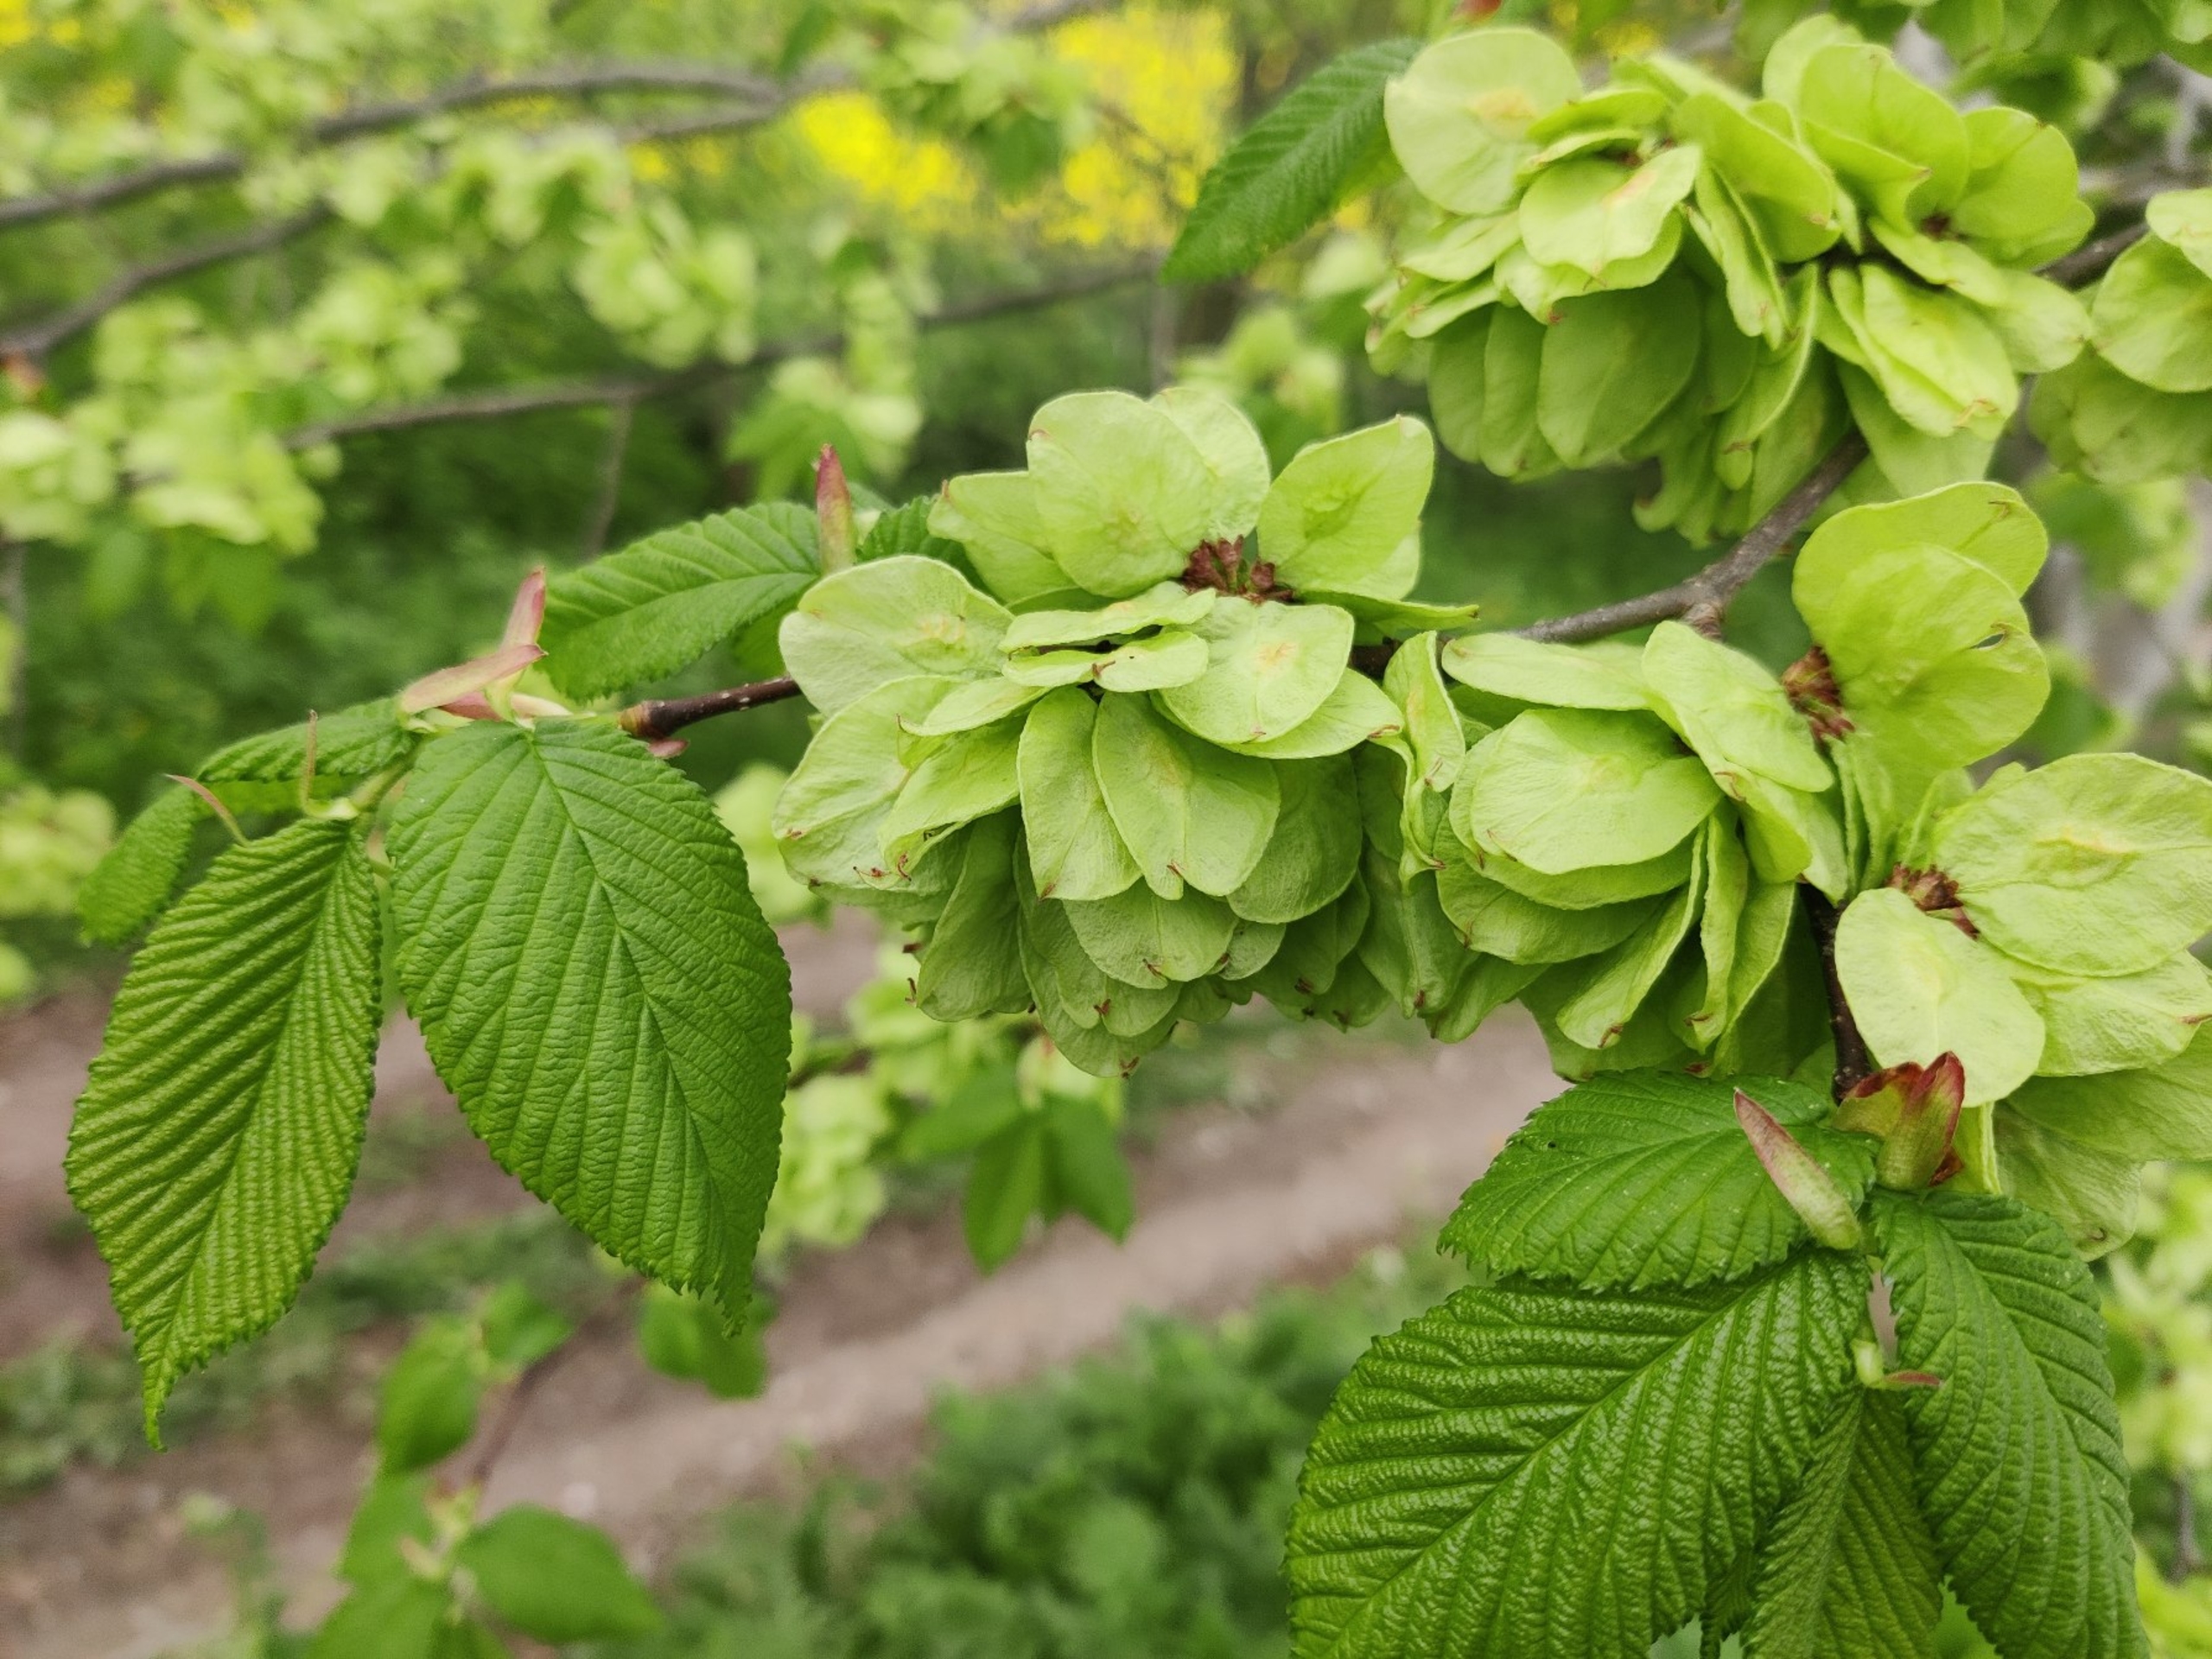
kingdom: Plantae
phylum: Tracheophyta
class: Magnoliopsida
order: Rosales
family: Ulmaceae
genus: Ulmus
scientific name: Ulmus glabra
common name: Skov-elm/storbladet elm
